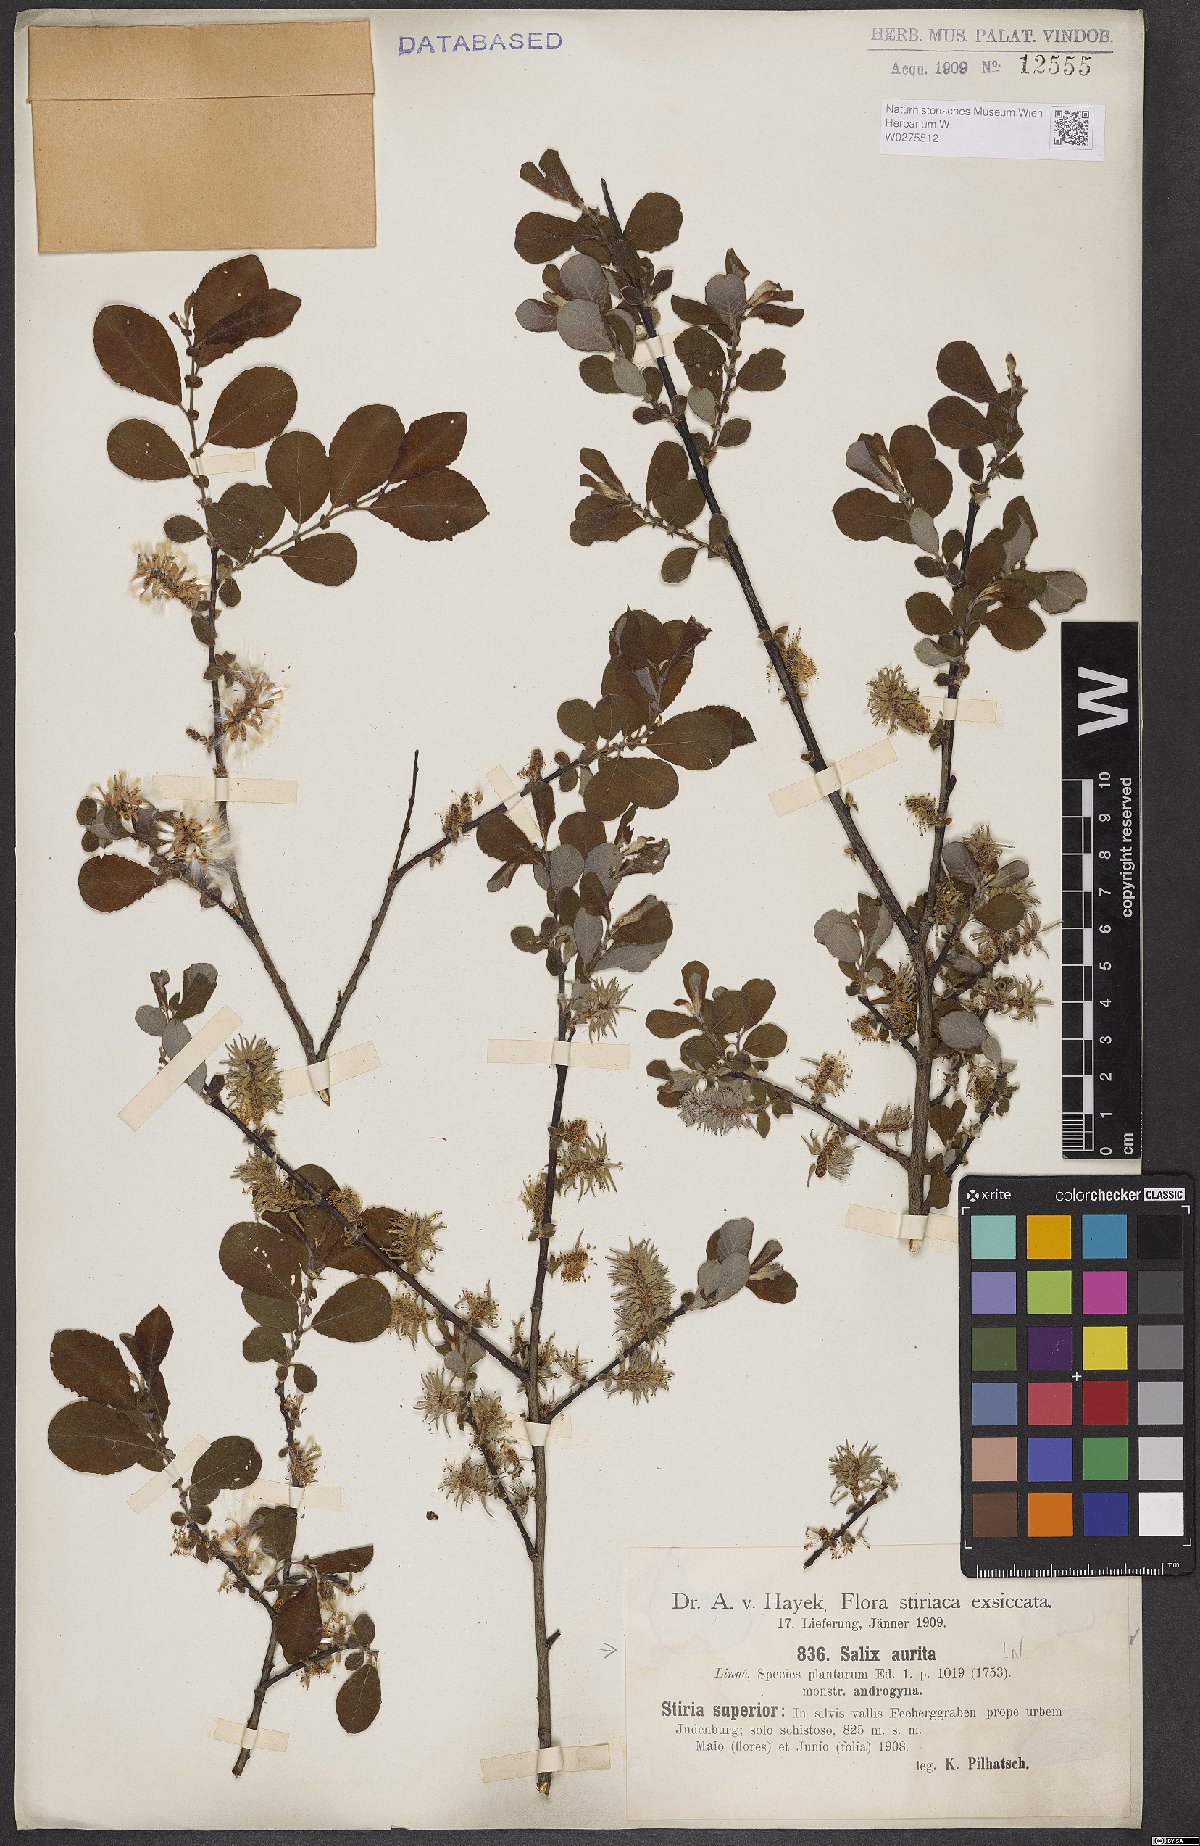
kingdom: Plantae
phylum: Tracheophyta
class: Magnoliopsida
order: Malpighiales
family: Salicaceae
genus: Salix
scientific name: Salix aurita
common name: Eared willow
